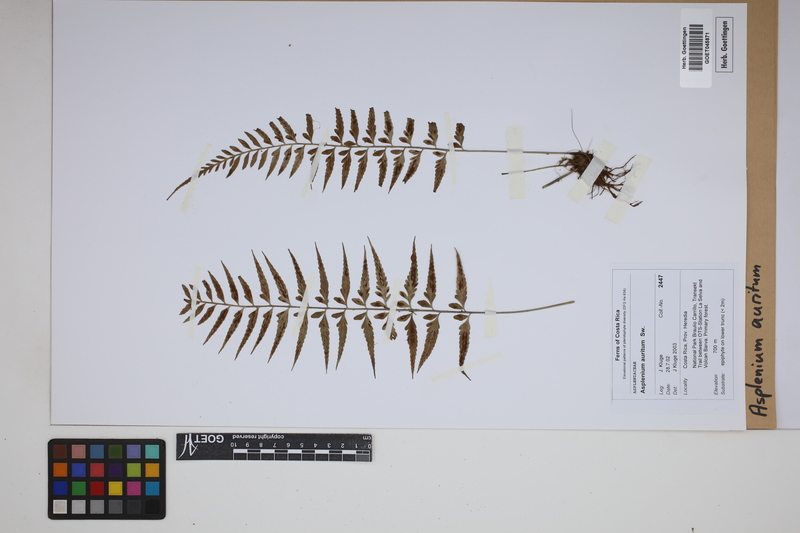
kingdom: Plantae
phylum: Tracheophyta
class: Polypodiopsida
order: Polypodiales
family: Aspleniaceae
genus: Asplenium
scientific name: Asplenium auritum
